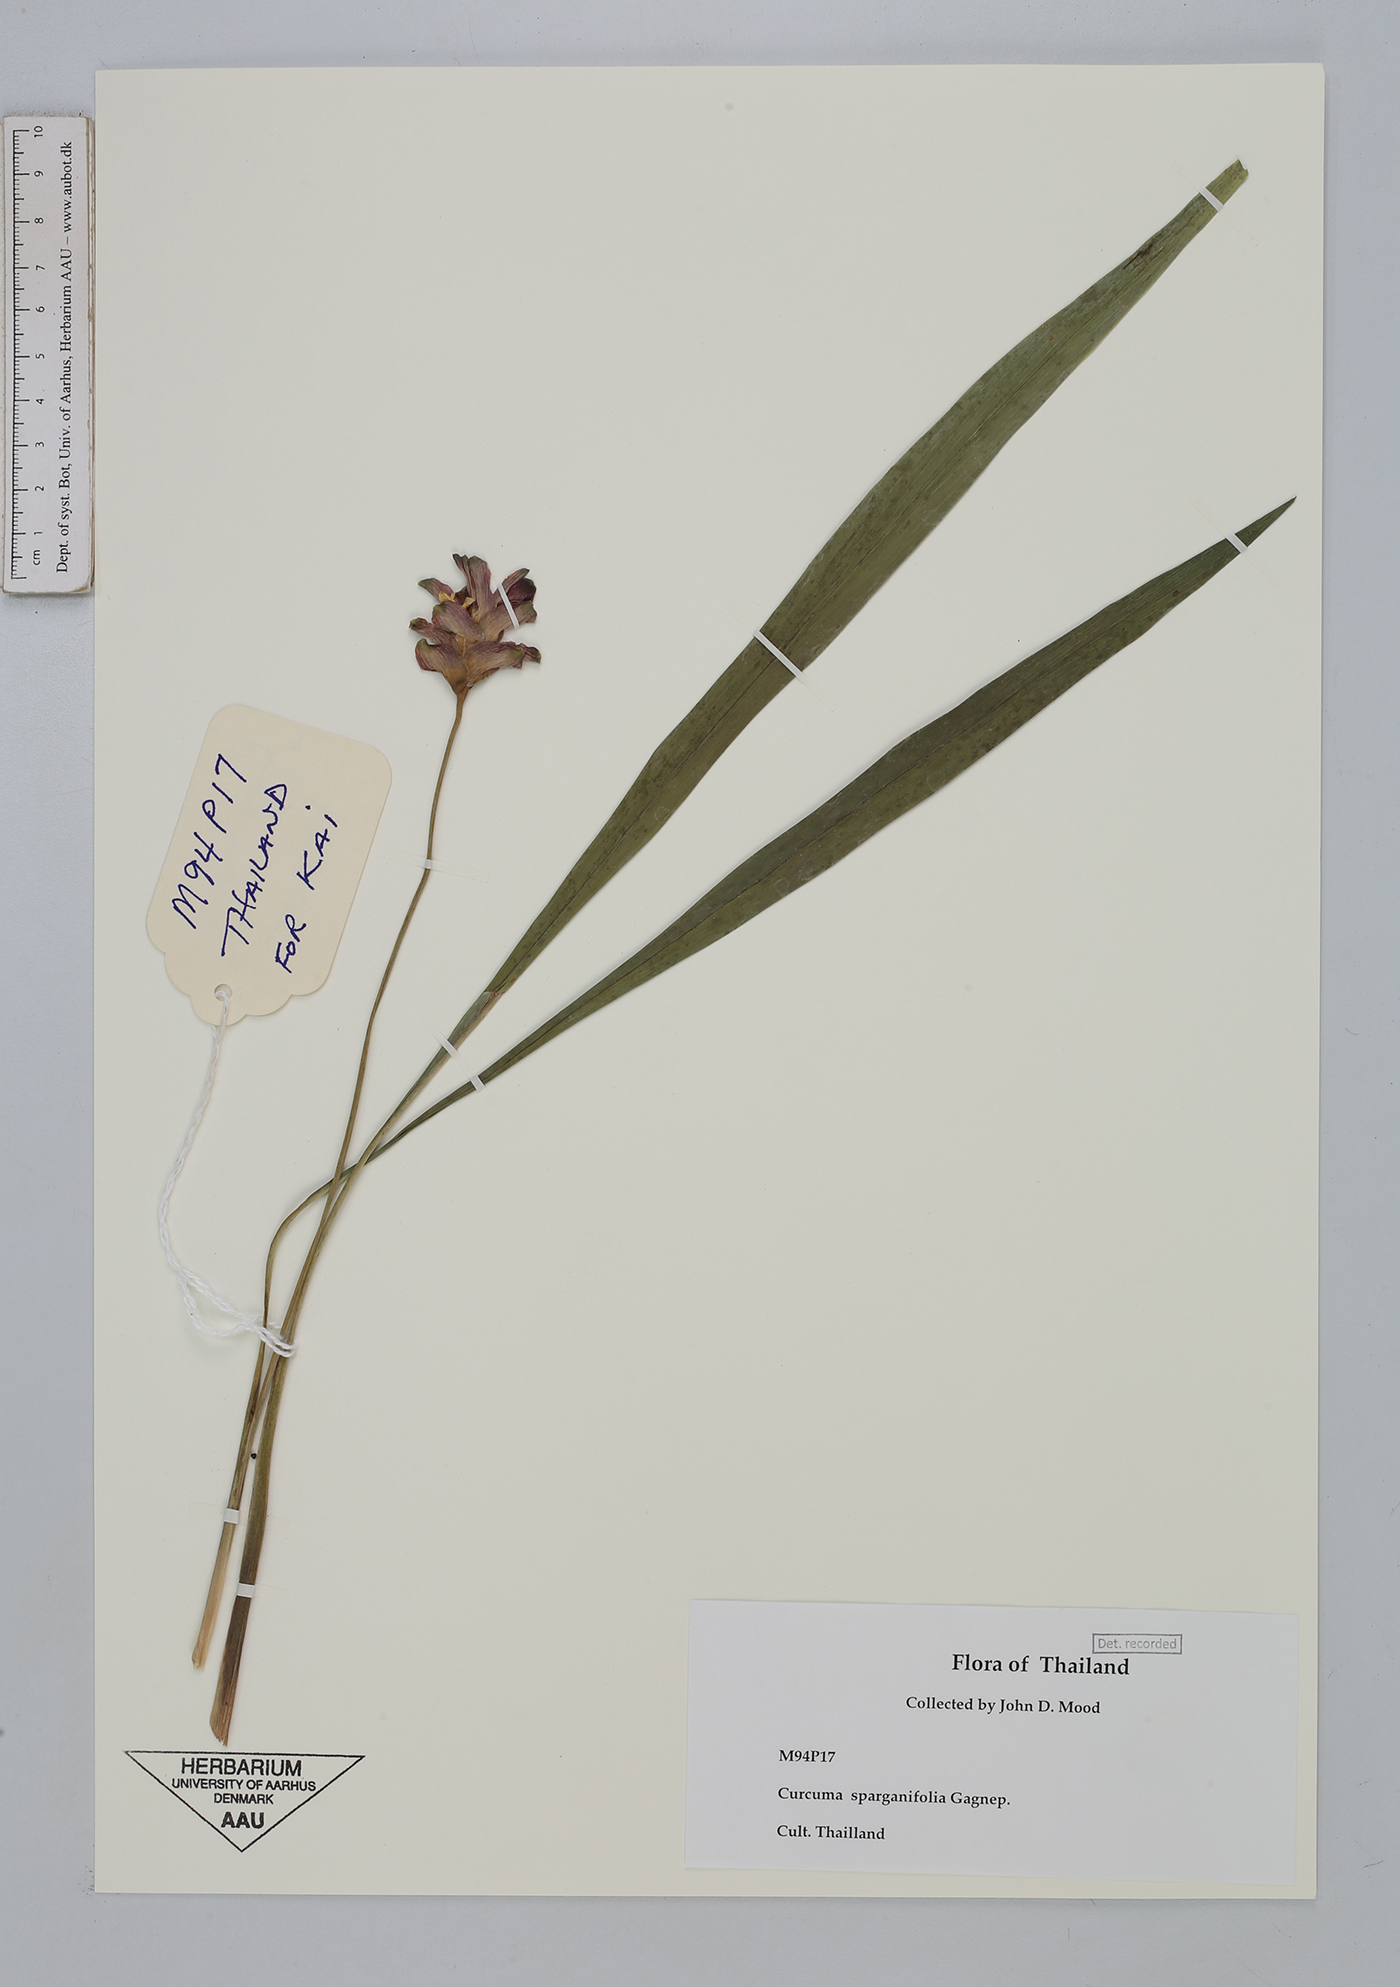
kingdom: Plantae
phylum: Tracheophyta
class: Liliopsida
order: Zingiberales
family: Zingiberaceae
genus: Curcuma
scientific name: Curcuma sparganiifolia
